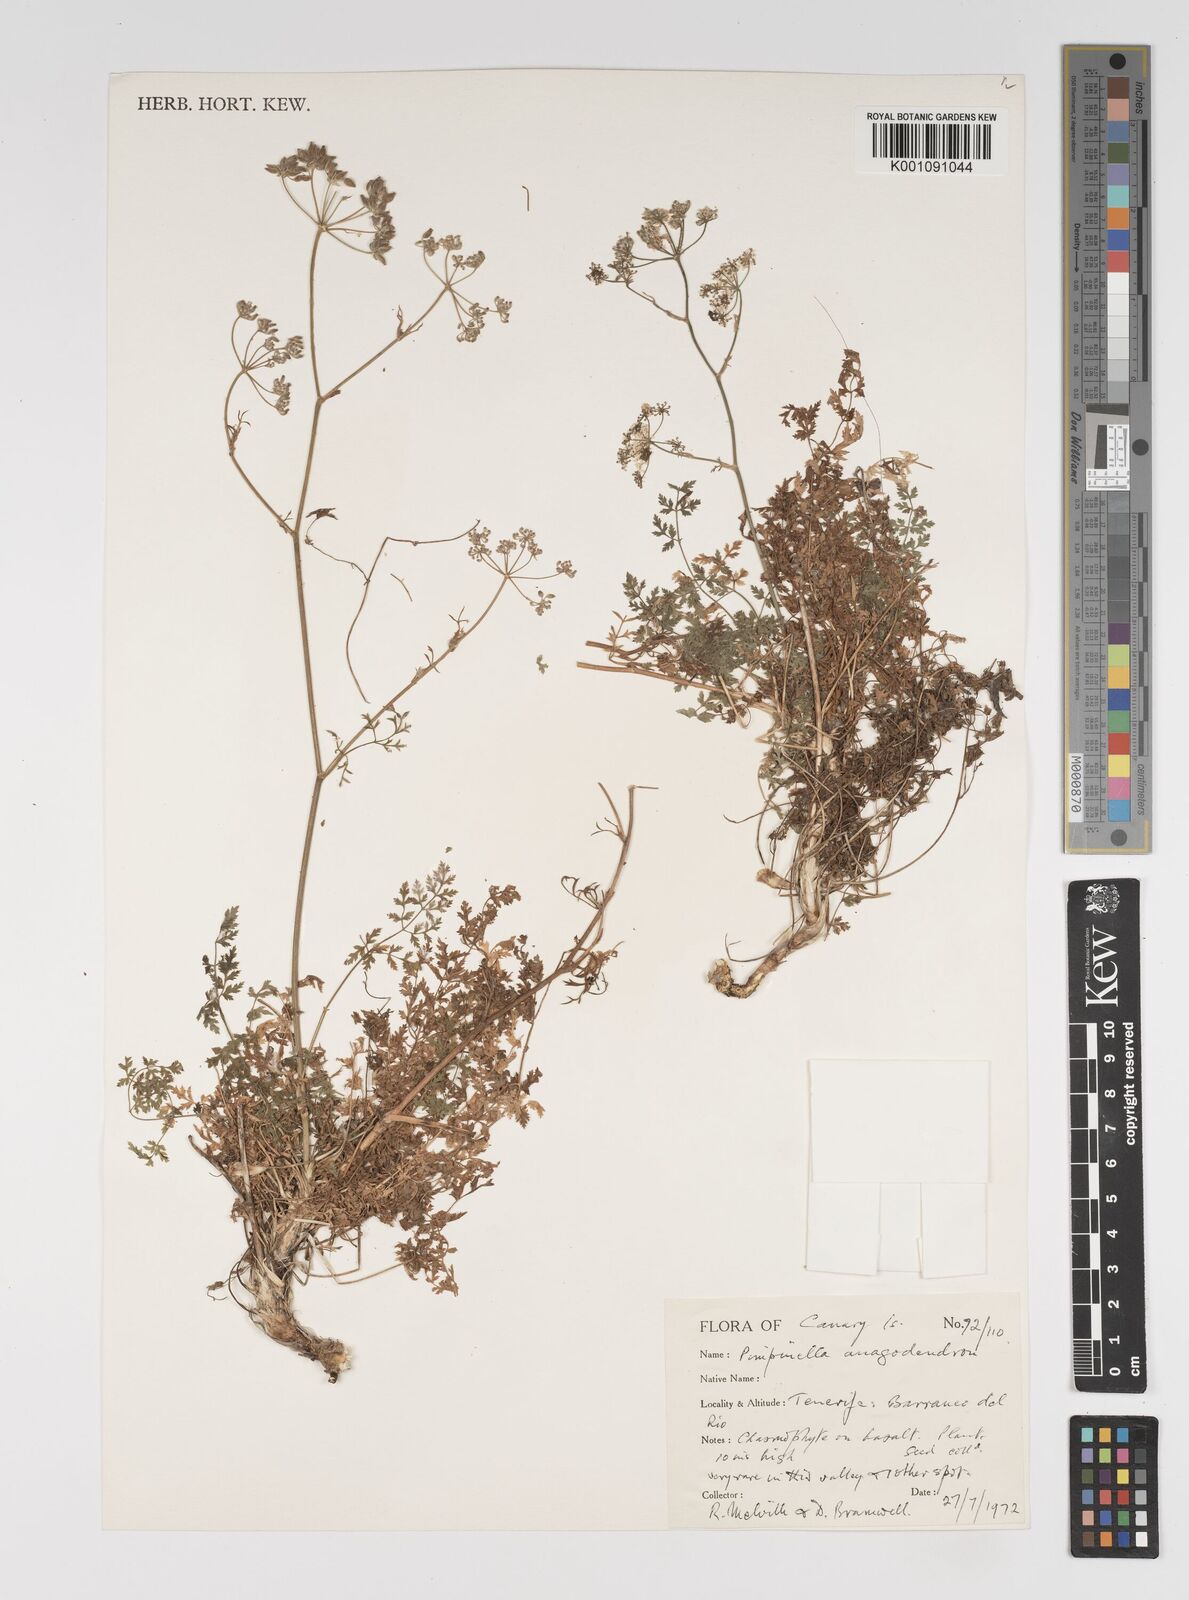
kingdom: Plantae
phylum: Tracheophyta
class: Magnoliopsida
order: Apiales
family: Apiaceae
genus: Pimpinella
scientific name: Pimpinella anagodendron
